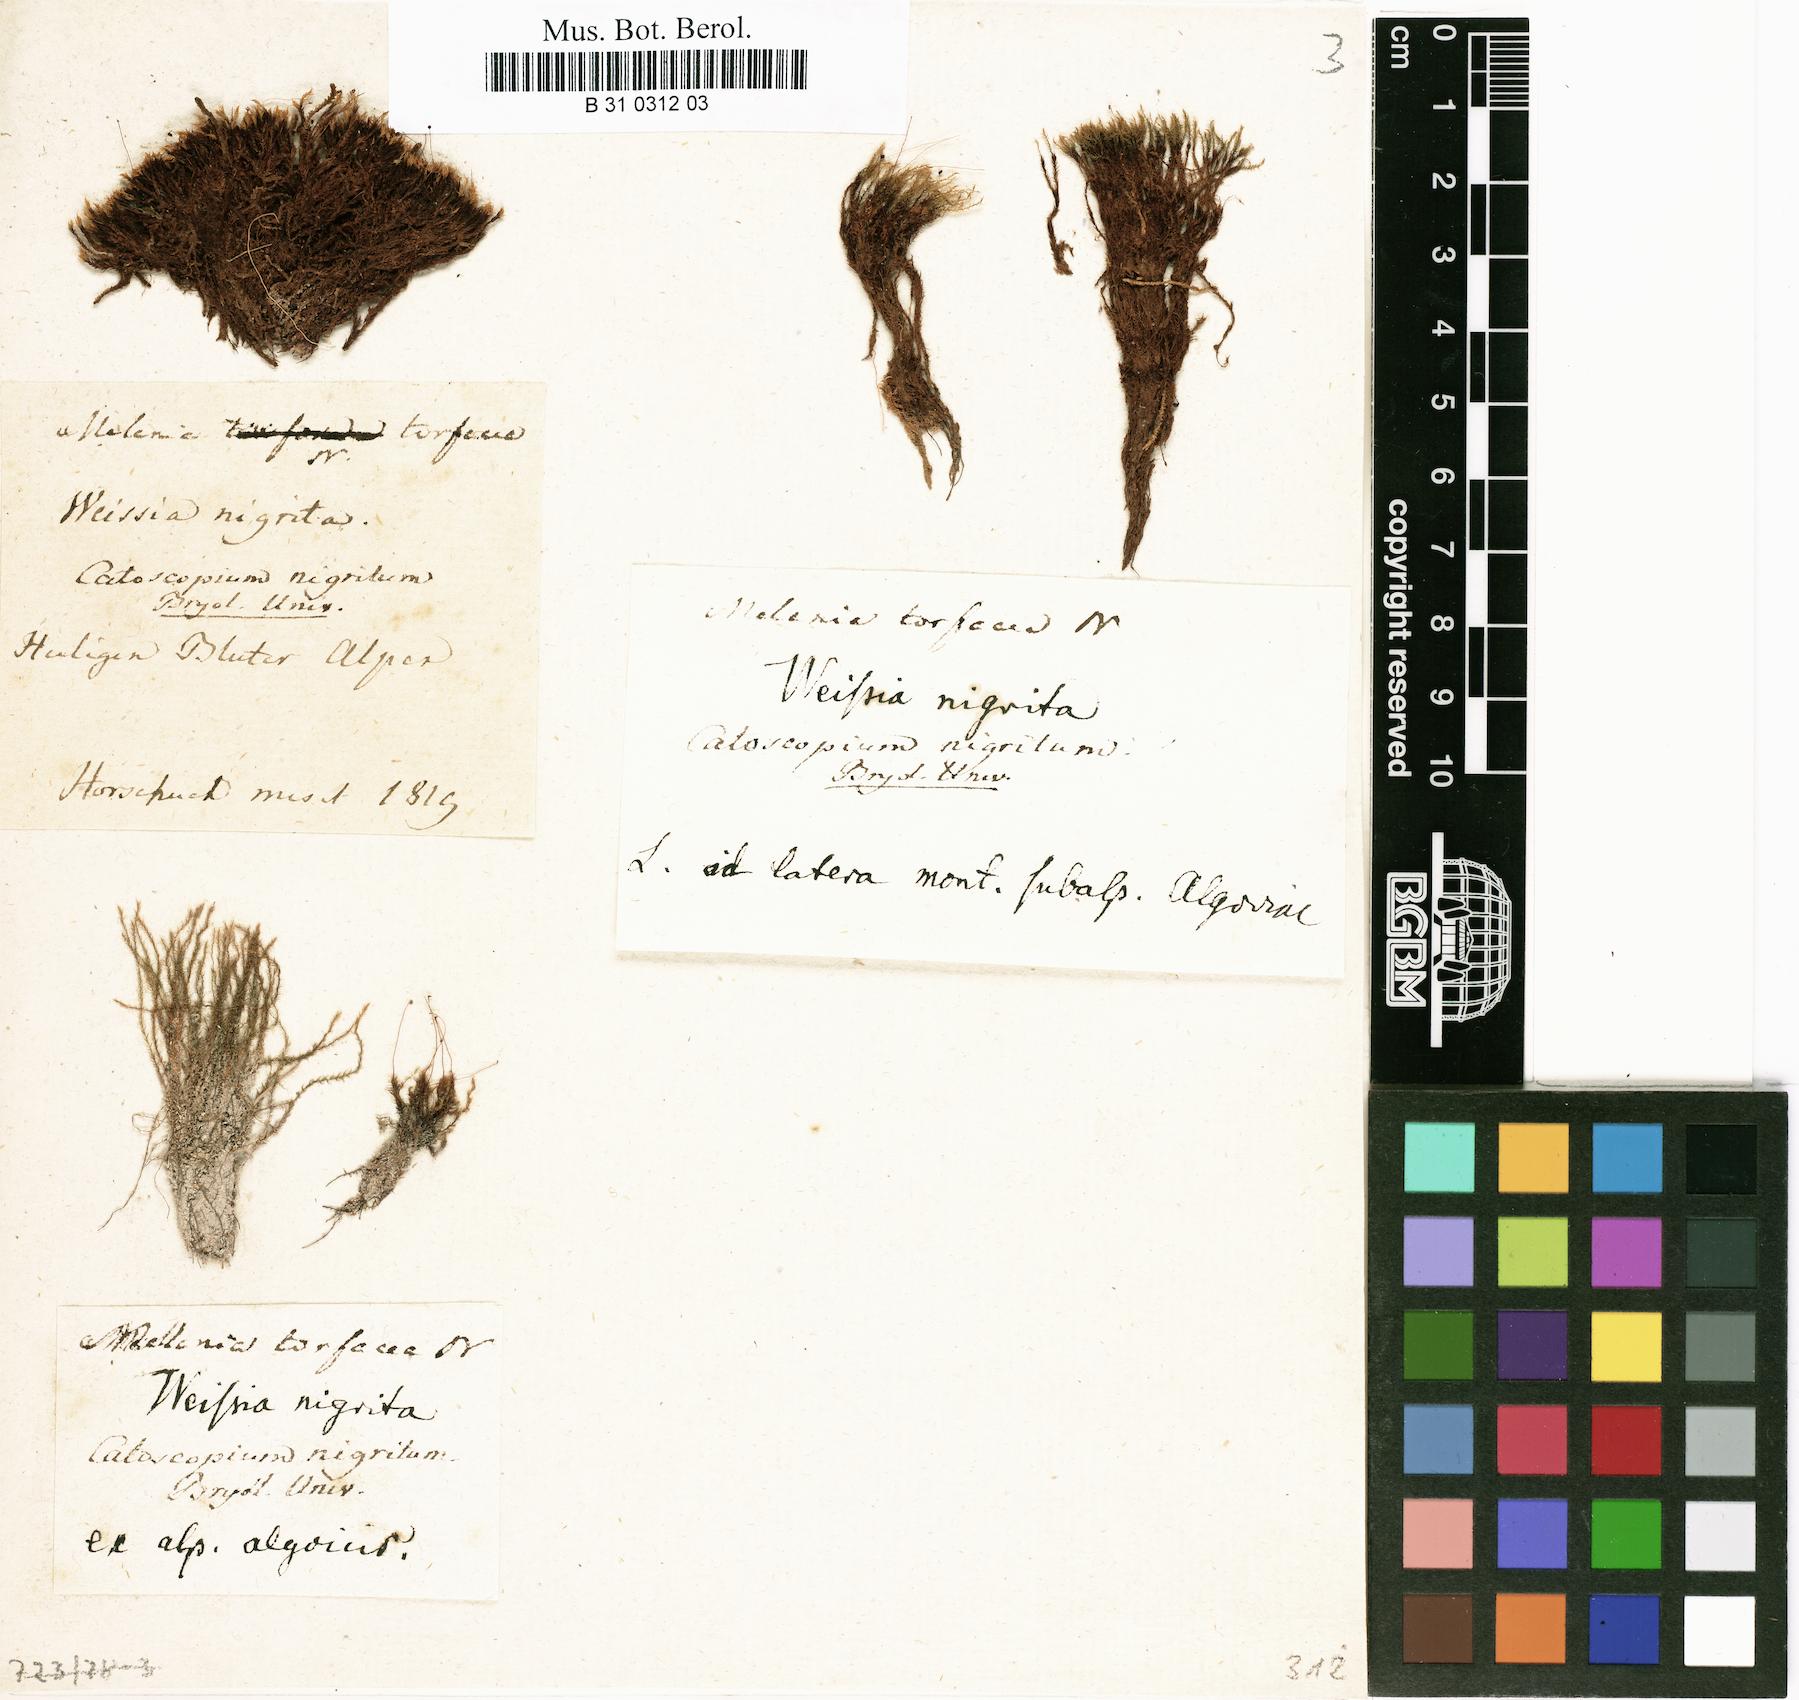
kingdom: Plantae
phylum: Bryophyta
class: Bryopsida
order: Catoscopiales
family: Catoscopiaceae
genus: Catoscopium
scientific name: Catoscopium nigritum
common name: Black golf club moss
